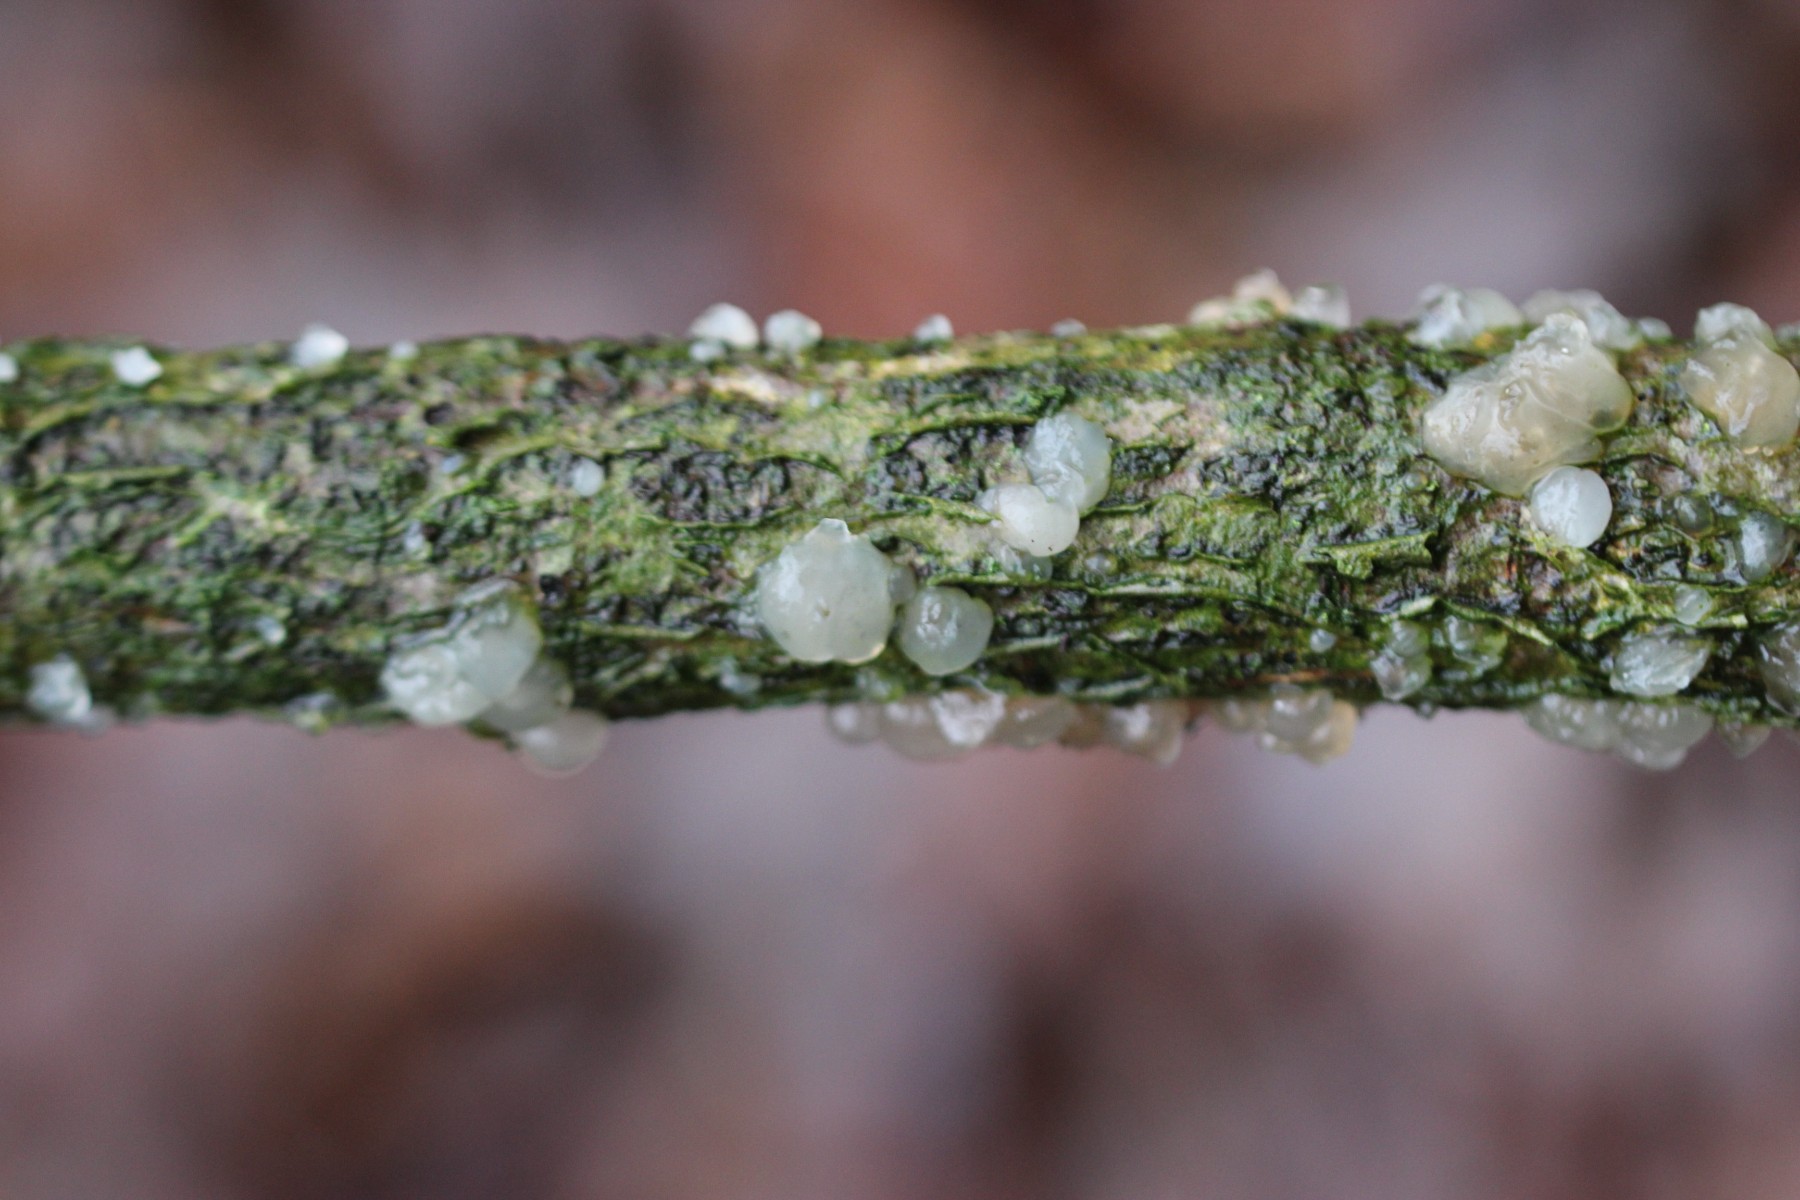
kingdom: Fungi
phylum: Basidiomycota
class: Agaricomycetes
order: Auriculariales
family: Hyaloriaceae
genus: Myxarium
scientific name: Myxarium nucleatum
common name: klar bævretop
